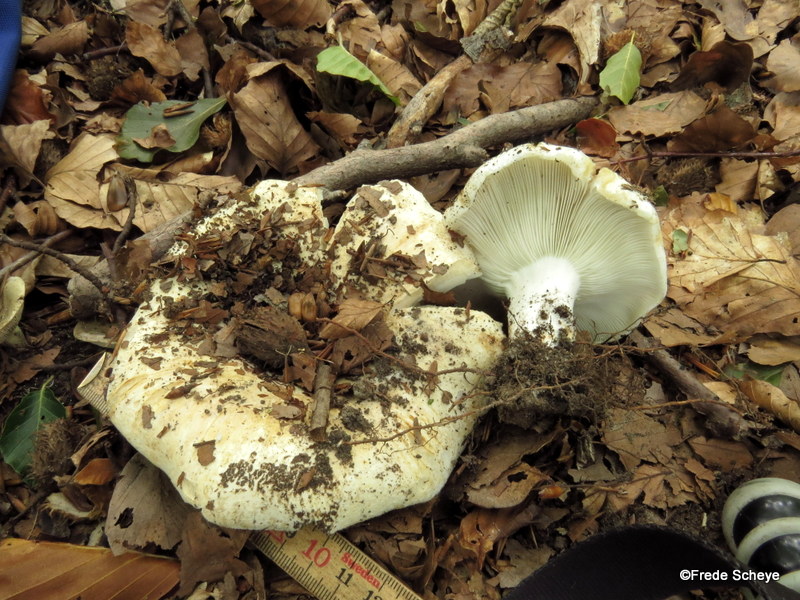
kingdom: Fungi
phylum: Basidiomycota
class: Agaricomycetes
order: Russulales
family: Russulaceae
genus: Russula
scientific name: Russula chloroides
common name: grønhalset tragt-skørhat
